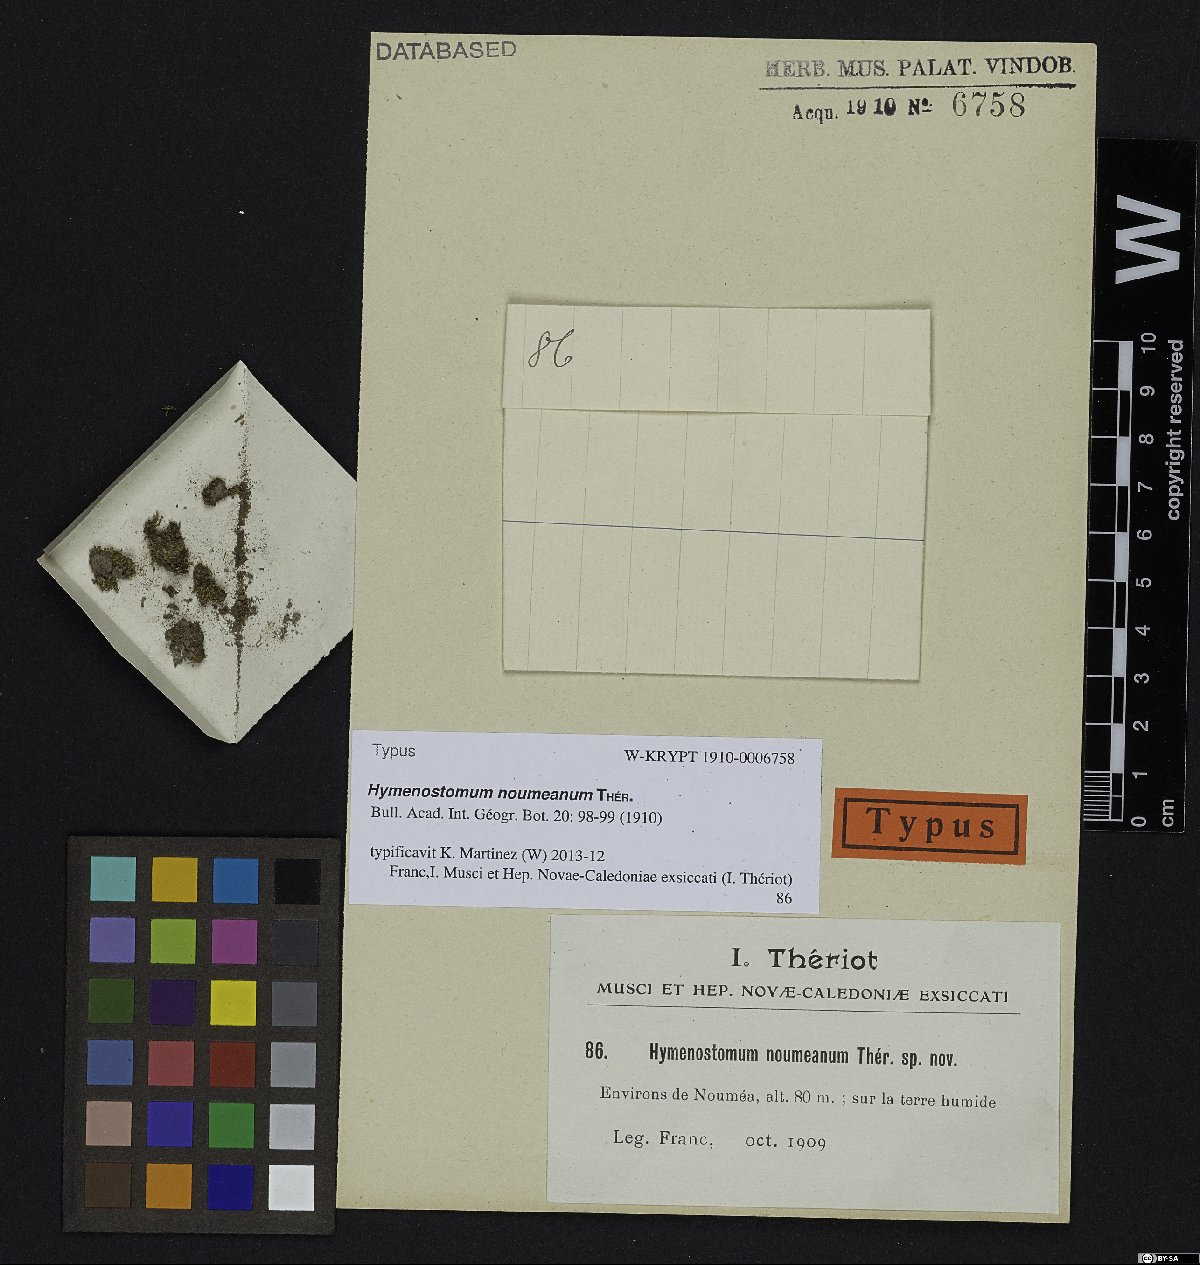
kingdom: Plantae
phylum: Bryophyta
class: Bryopsida
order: Pottiales
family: Pottiaceae
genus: Trichostomum
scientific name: Trichostomum noumeanum
